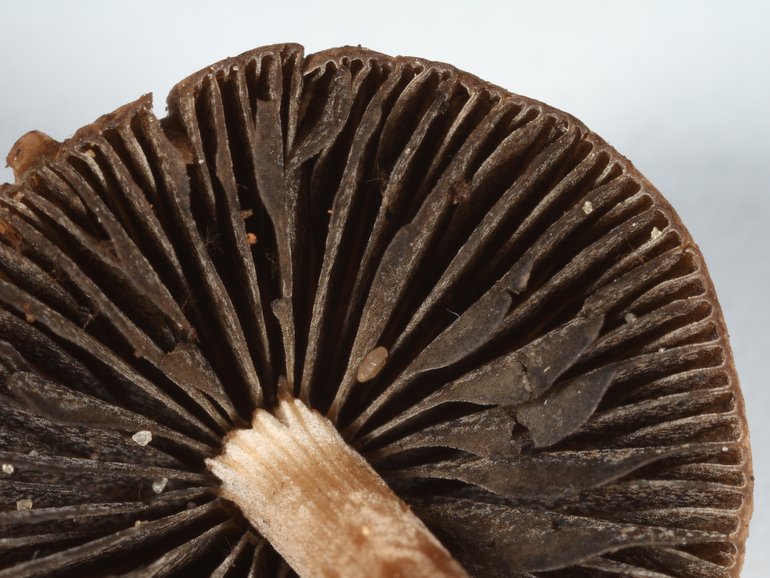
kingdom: Fungi
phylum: Basidiomycota
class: Agaricomycetes
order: Agaricales
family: Bolbitiaceae
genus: Panaeolus
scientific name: Panaeolus fimicola
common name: tidlig glanshat
